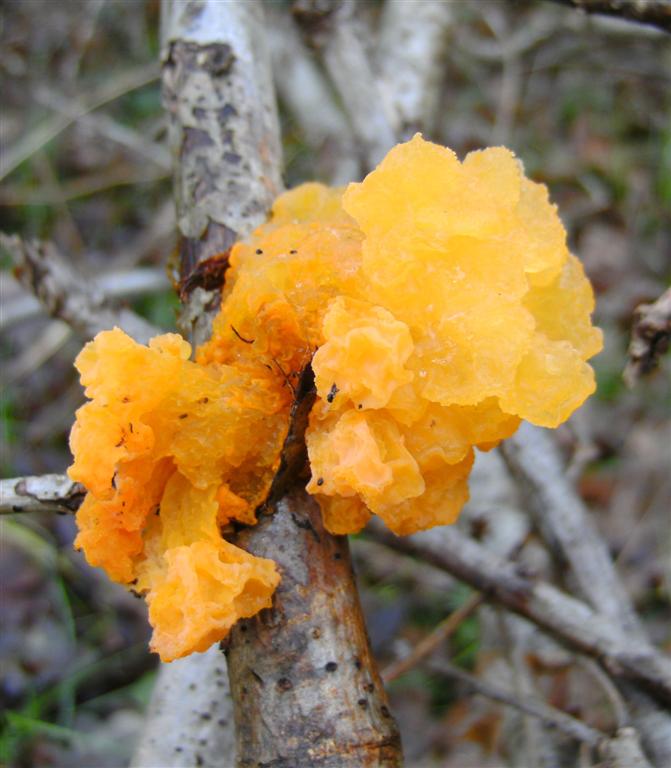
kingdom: Fungi
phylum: Basidiomycota
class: Tremellomycetes
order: Tremellales
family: Tremellaceae
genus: Tremella
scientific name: Tremella mesenterica
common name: gul bævresvamp
